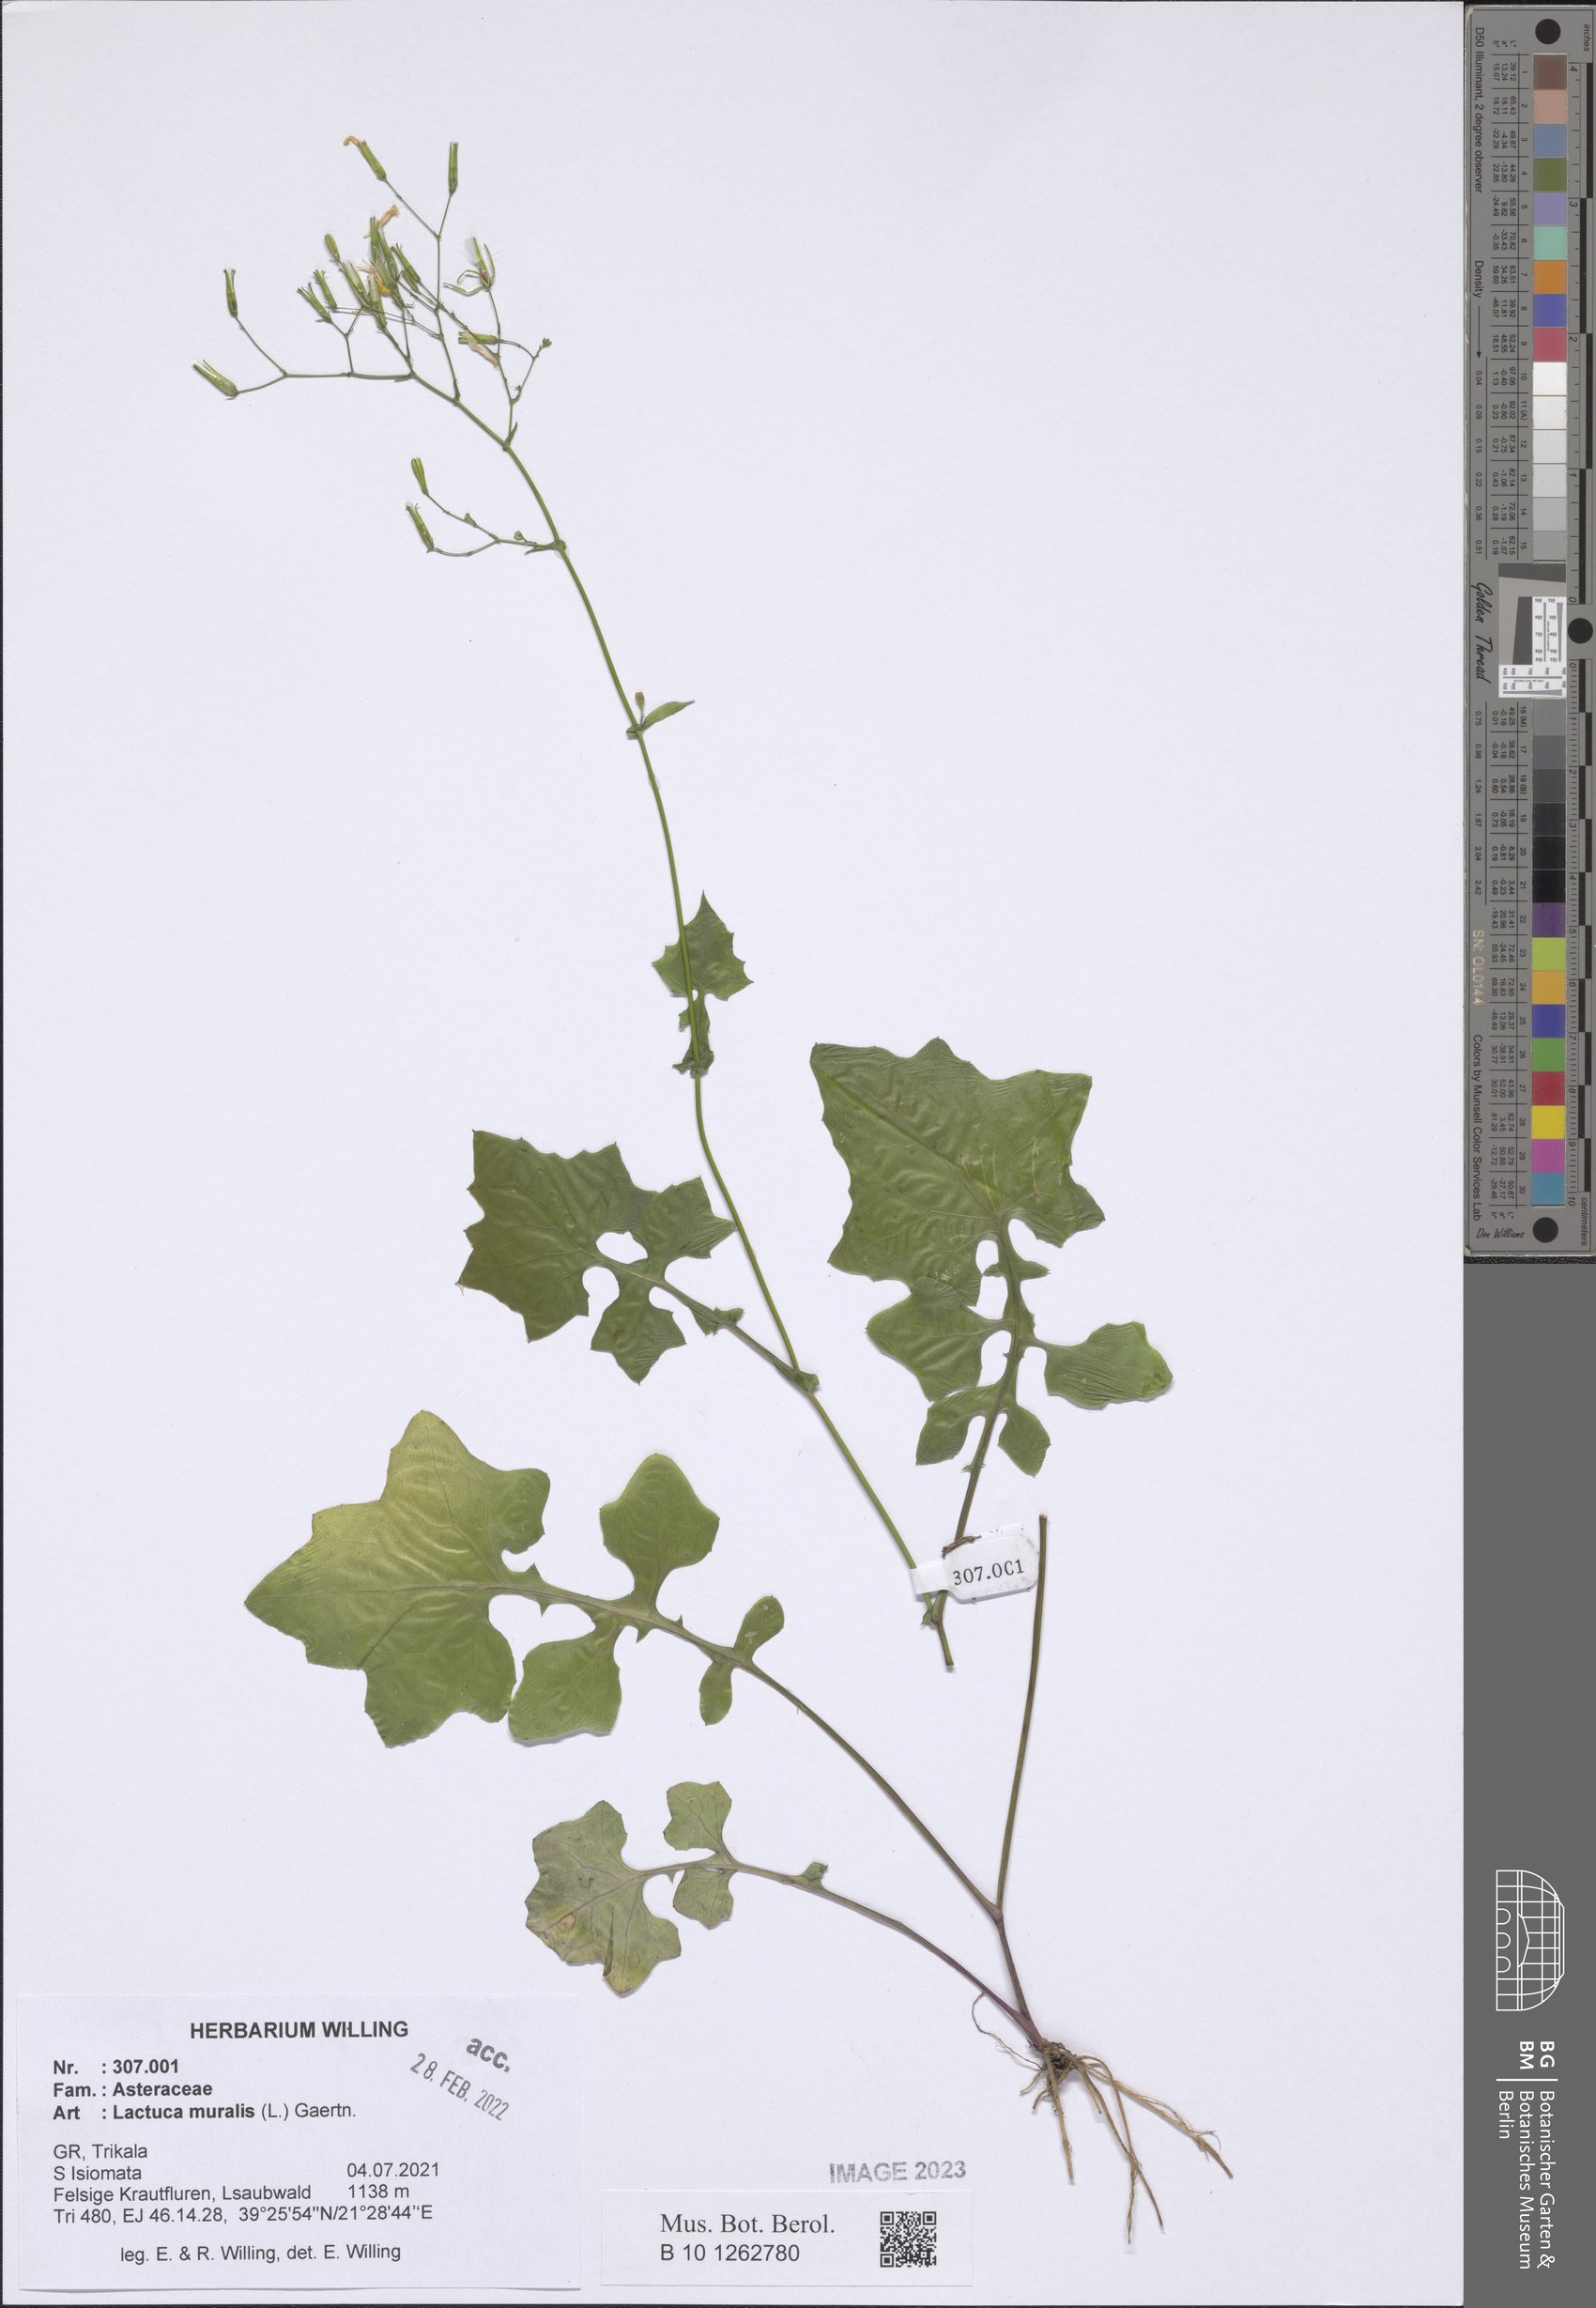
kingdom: Plantae
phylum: Tracheophyta
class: Magnoliopsida
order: Asterales
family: Asteraceae
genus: Mycelis
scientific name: Mycelis muralis
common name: Wall lettuce
